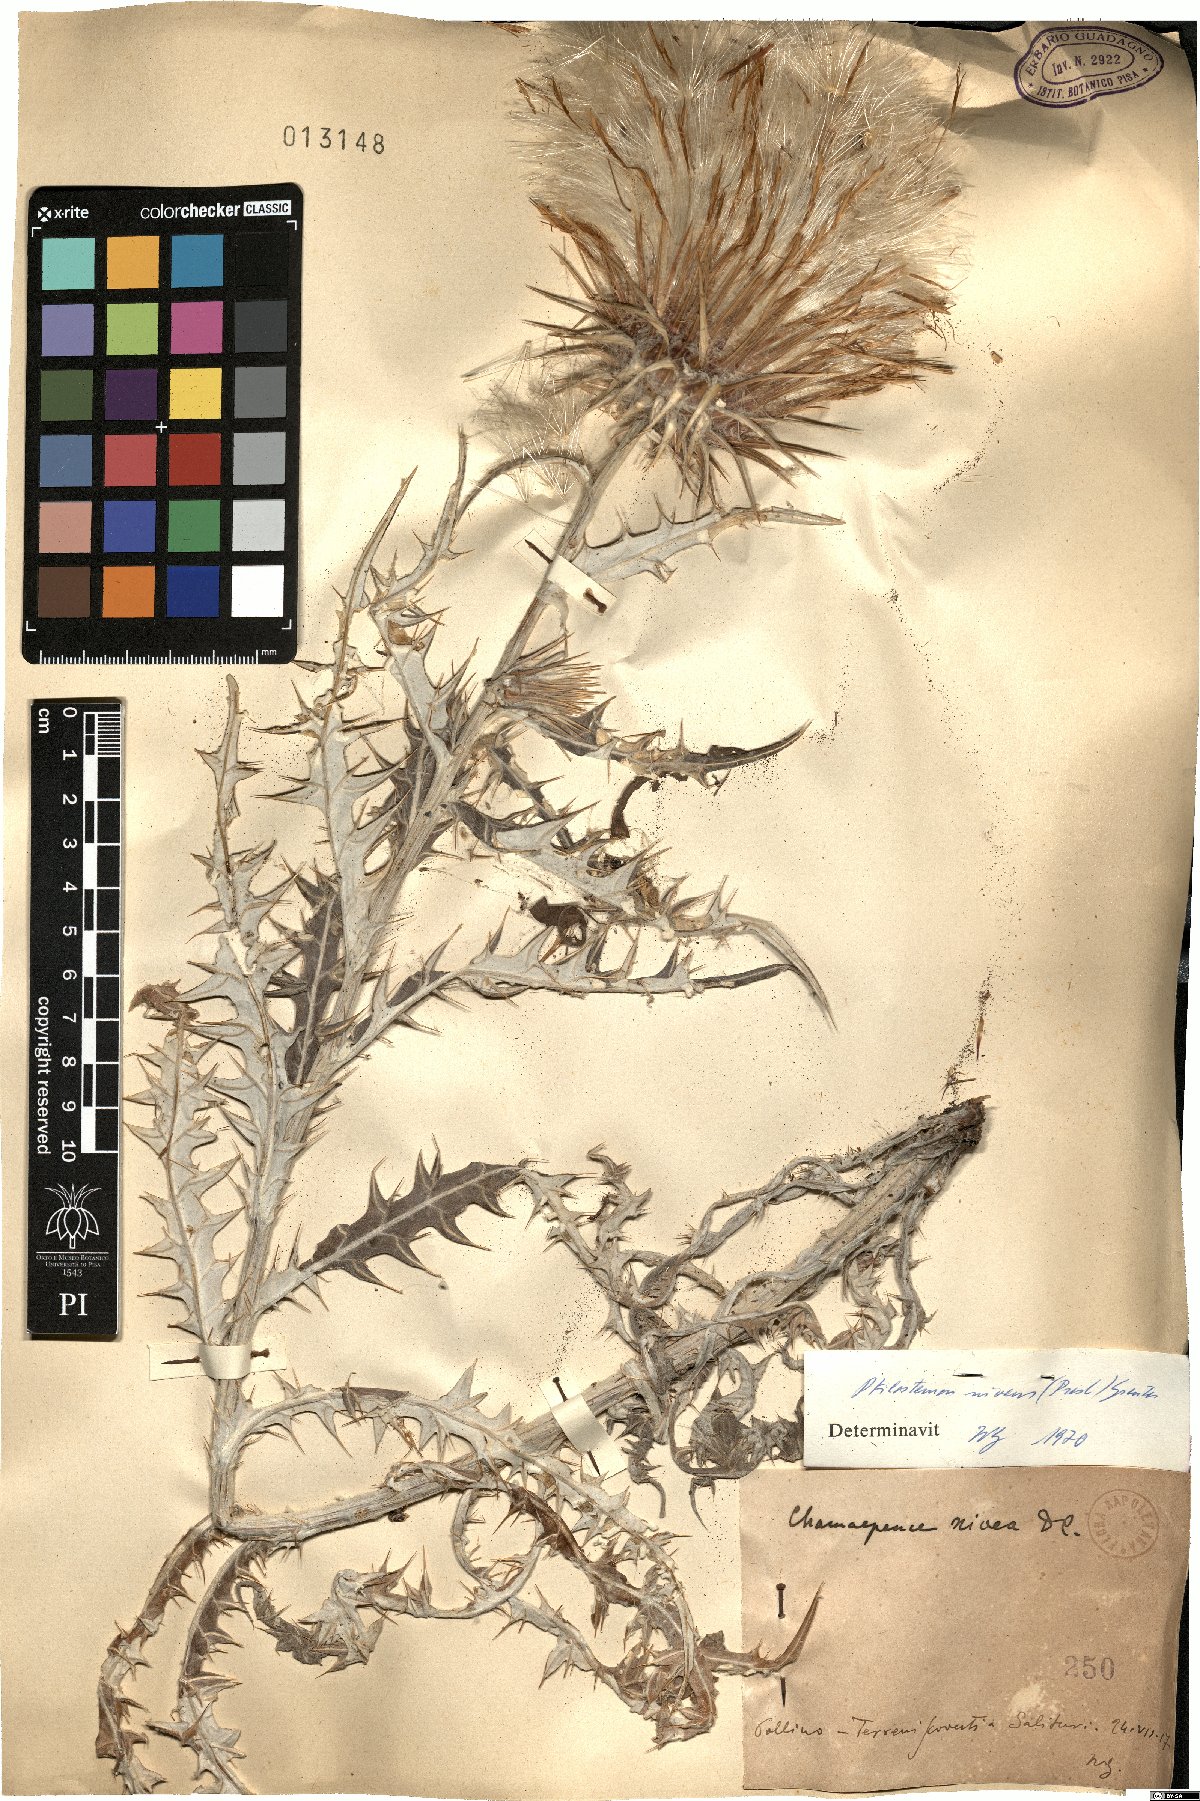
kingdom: Plantae
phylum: Tracheophyta
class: Magnoliopsida
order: Asterales
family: Asteraceae
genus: Ptilostemon
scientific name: Ptilostemon niveus
